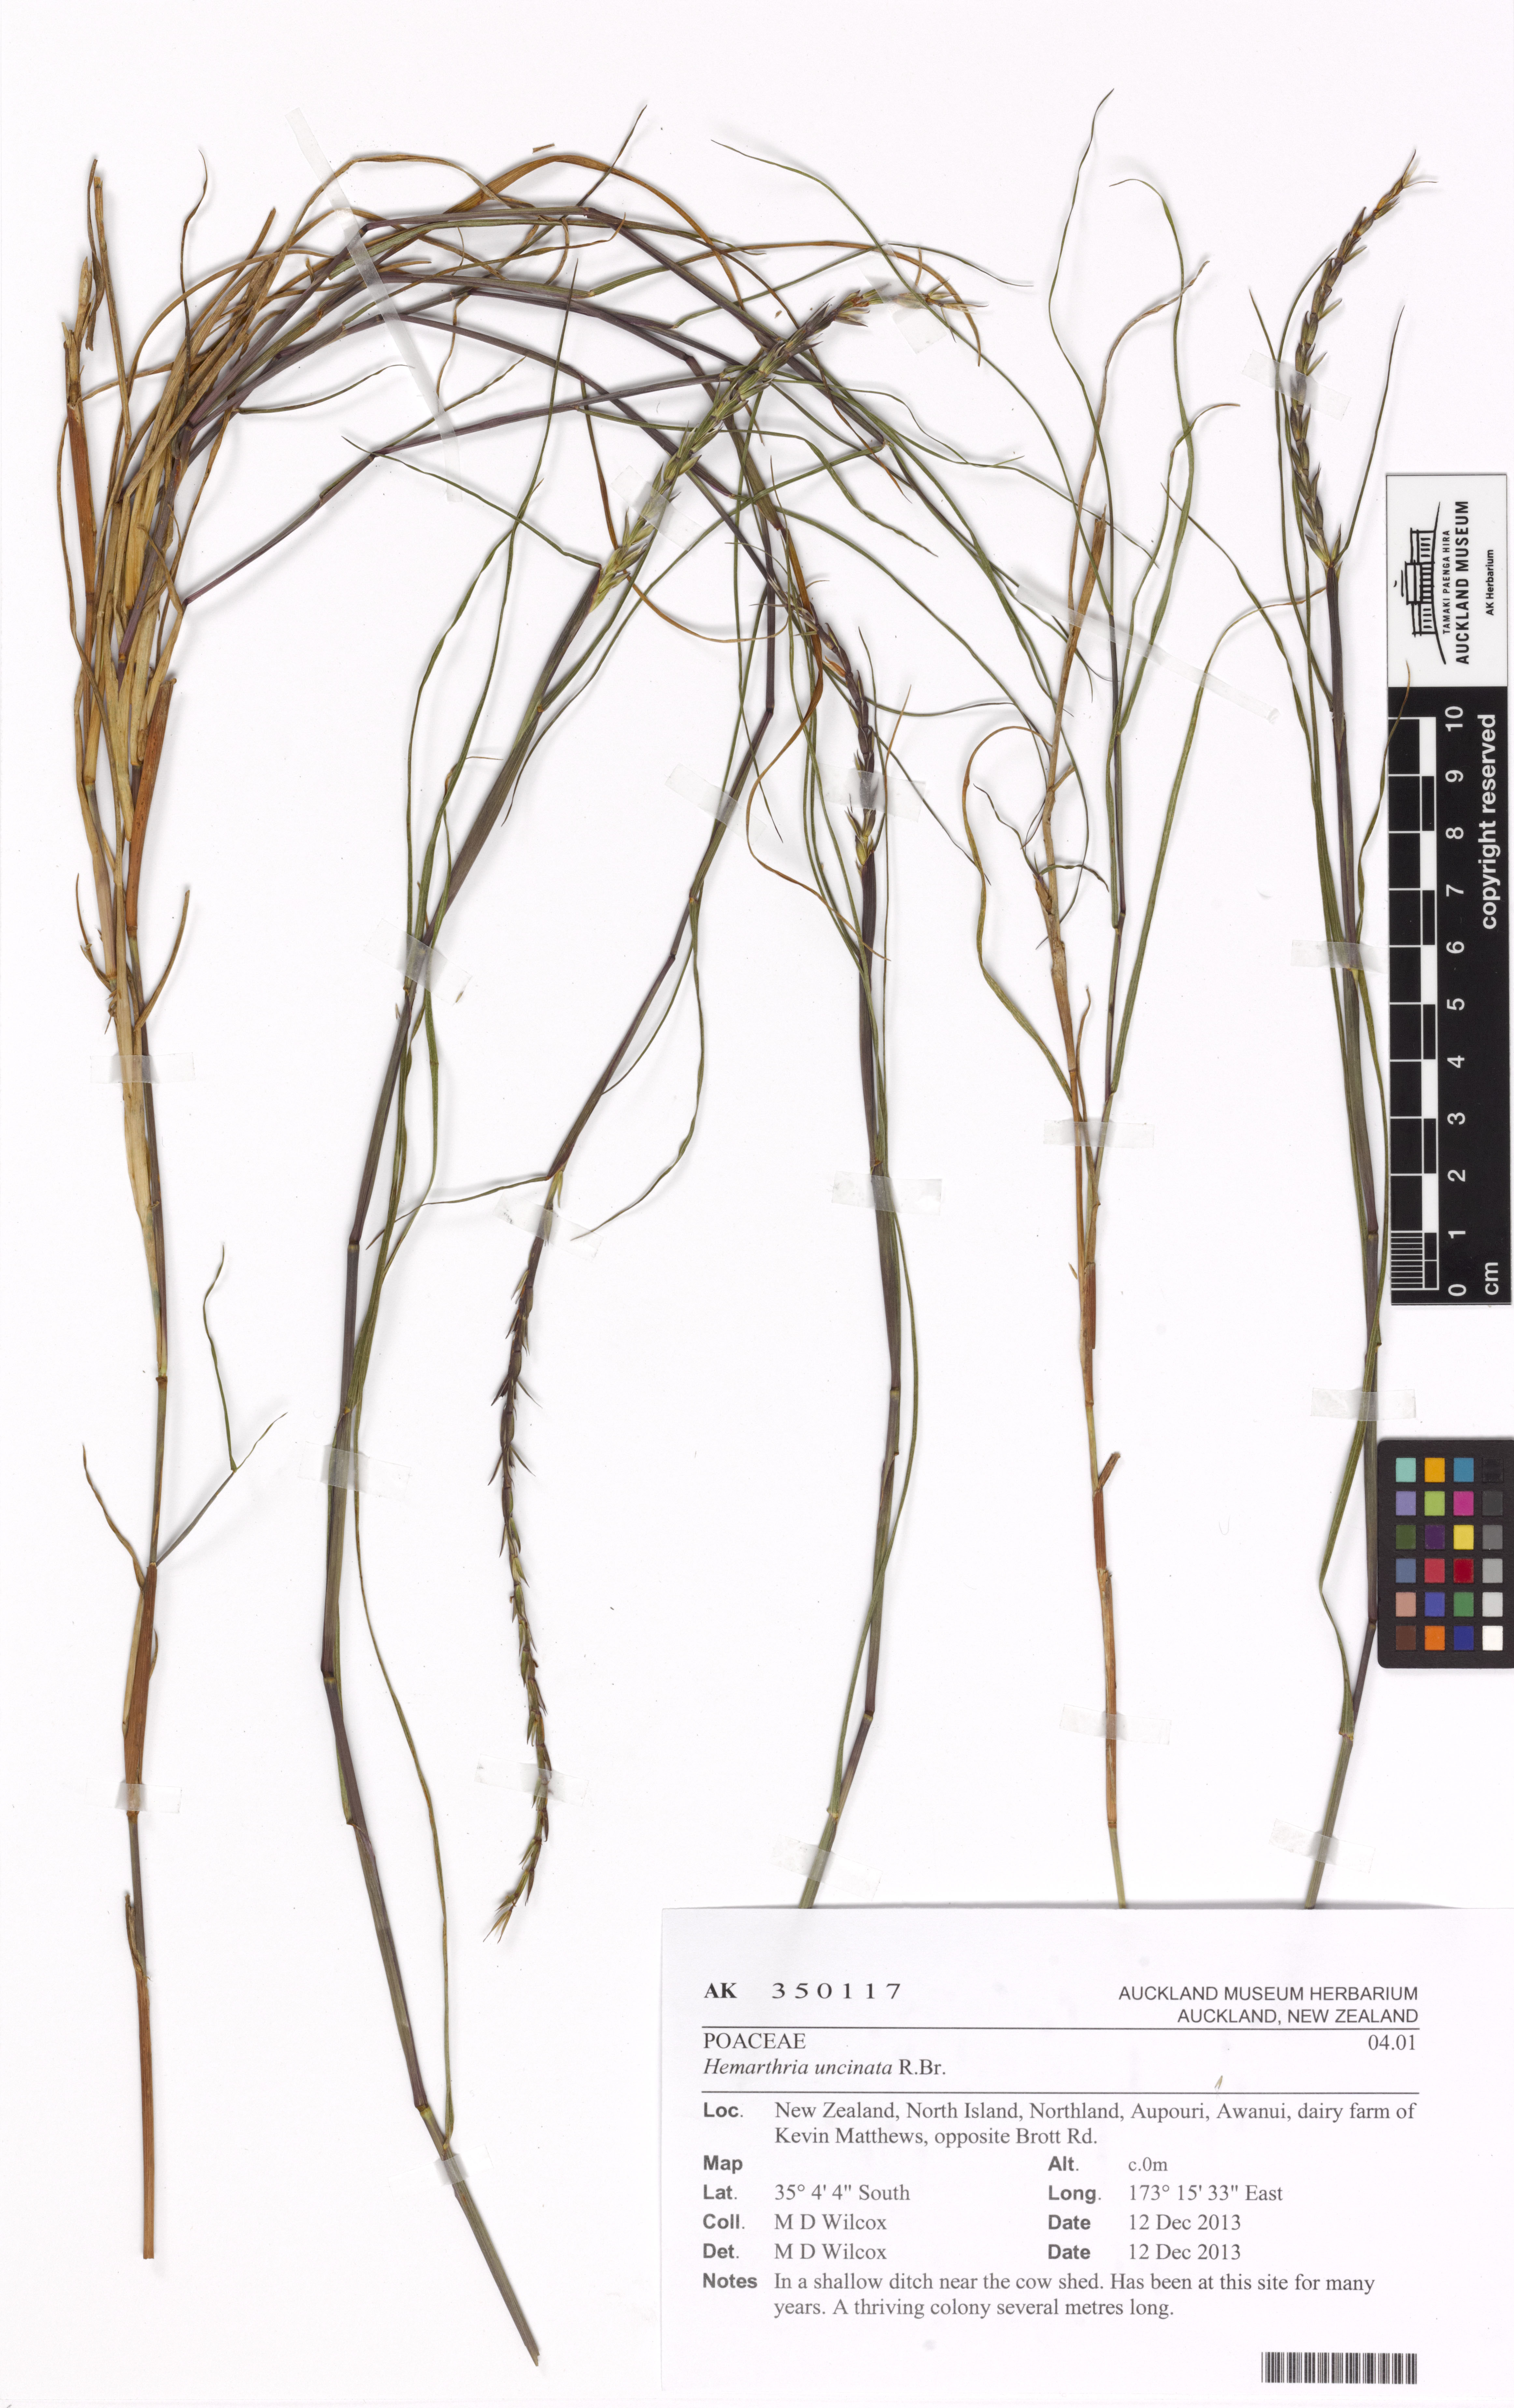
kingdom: Plantae
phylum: Tracheophyta
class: Liliopsida
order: Poales
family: Poaceae
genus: Hemarthria
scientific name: Hemarthria uncinata
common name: Matgrass
